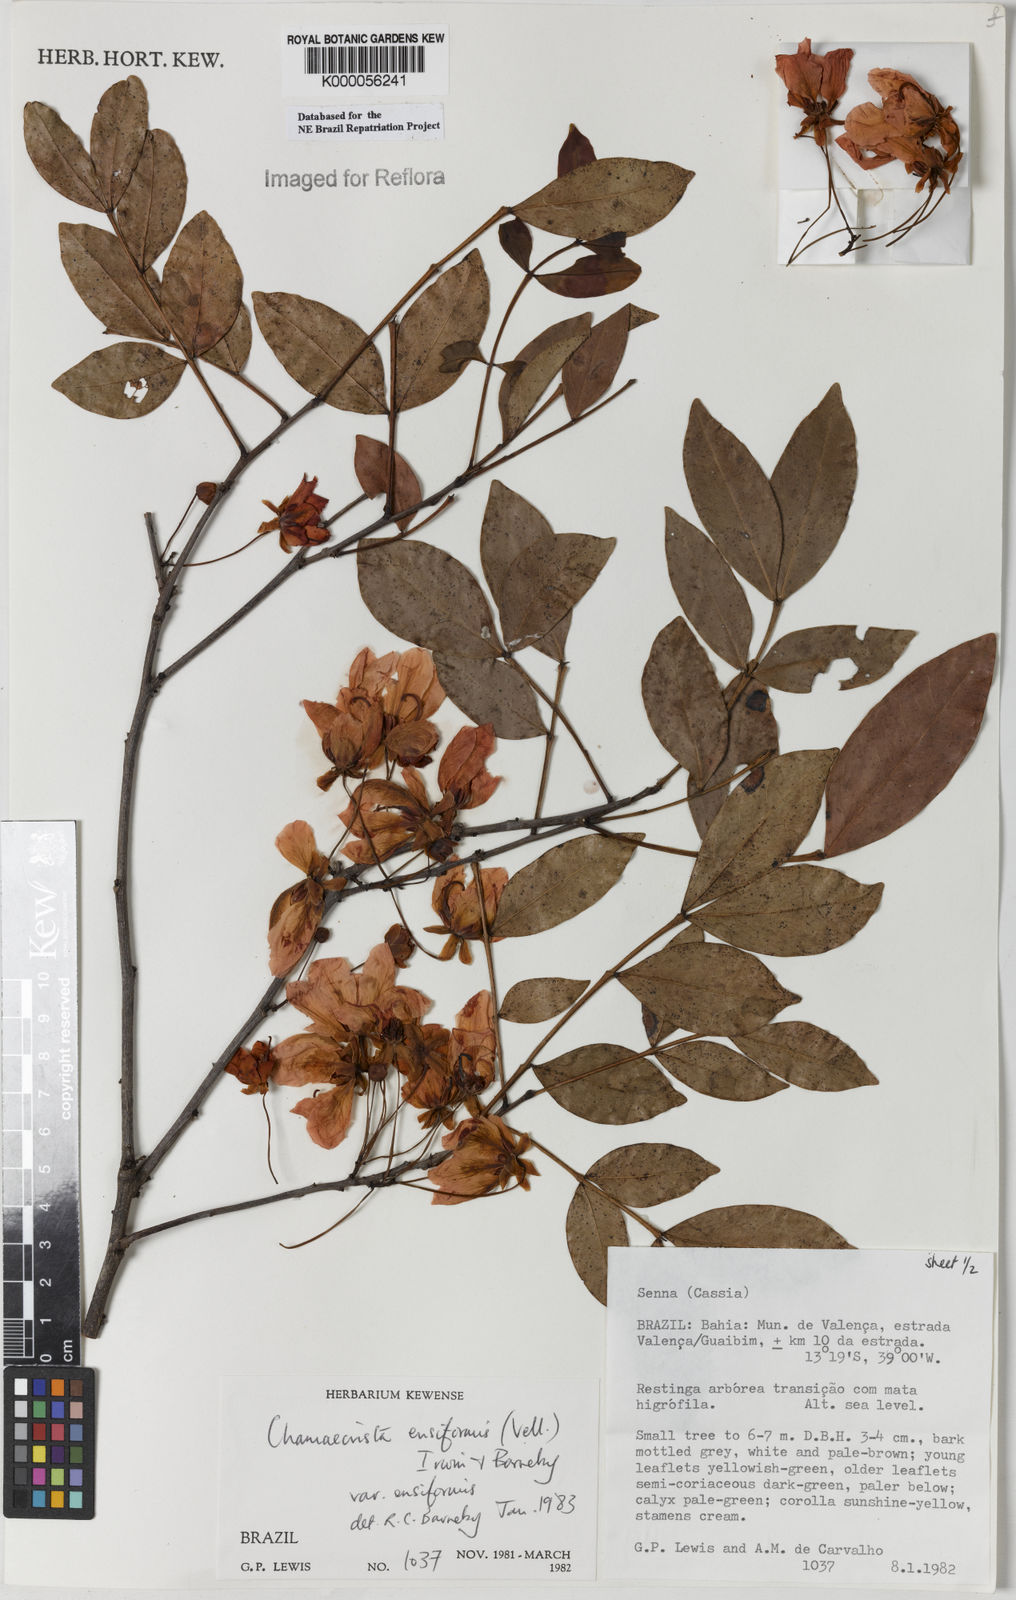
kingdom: Plantae
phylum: Tracheophyta
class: Magnoliopsida
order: Fabales
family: Fabaceae
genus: Chamaecrista
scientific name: Chamaecrista ensiformis
